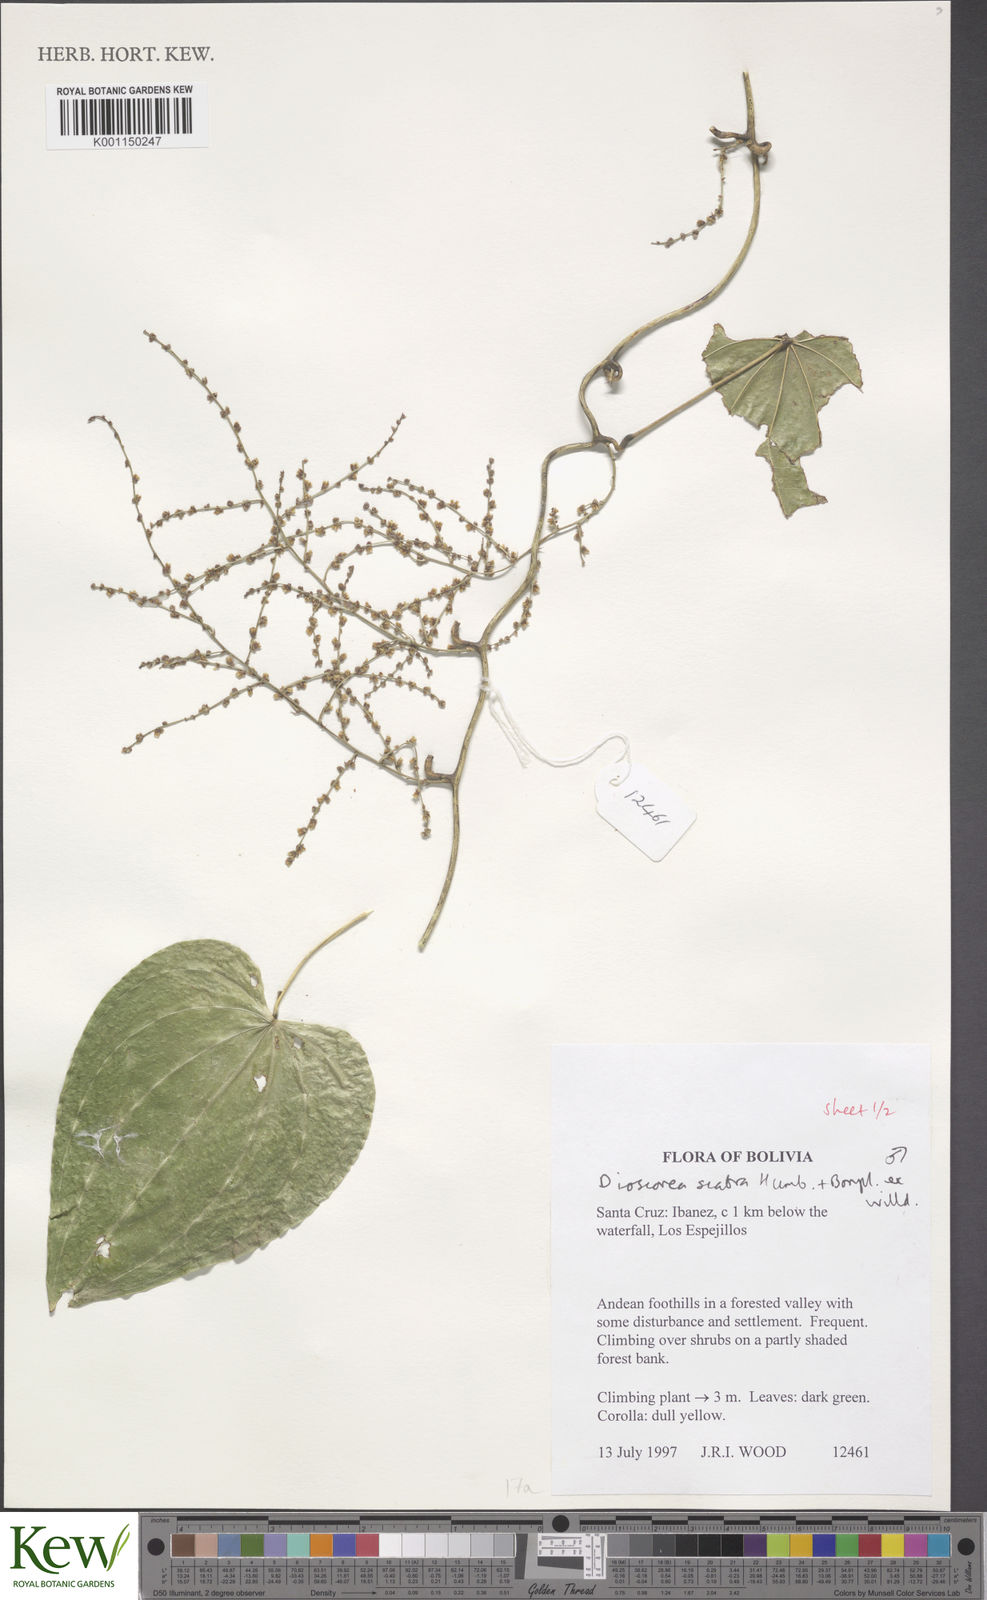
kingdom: Plantae
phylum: Tracheophyta
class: Liliopsida
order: Dioscoreales
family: Dioscoreaceae
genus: Dioscorea
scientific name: Dioscorea scabra
